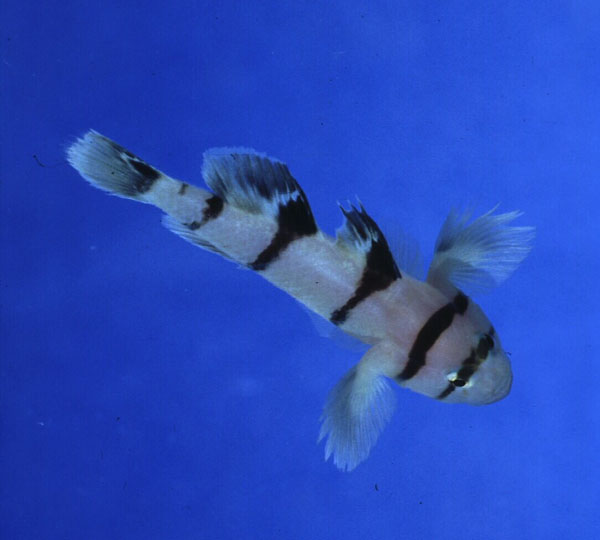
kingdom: Animalia
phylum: Chordata
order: Perciformes
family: Gobiidae
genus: Priolepis
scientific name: Priolepis nocturna
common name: Blackbarred reefgoby
